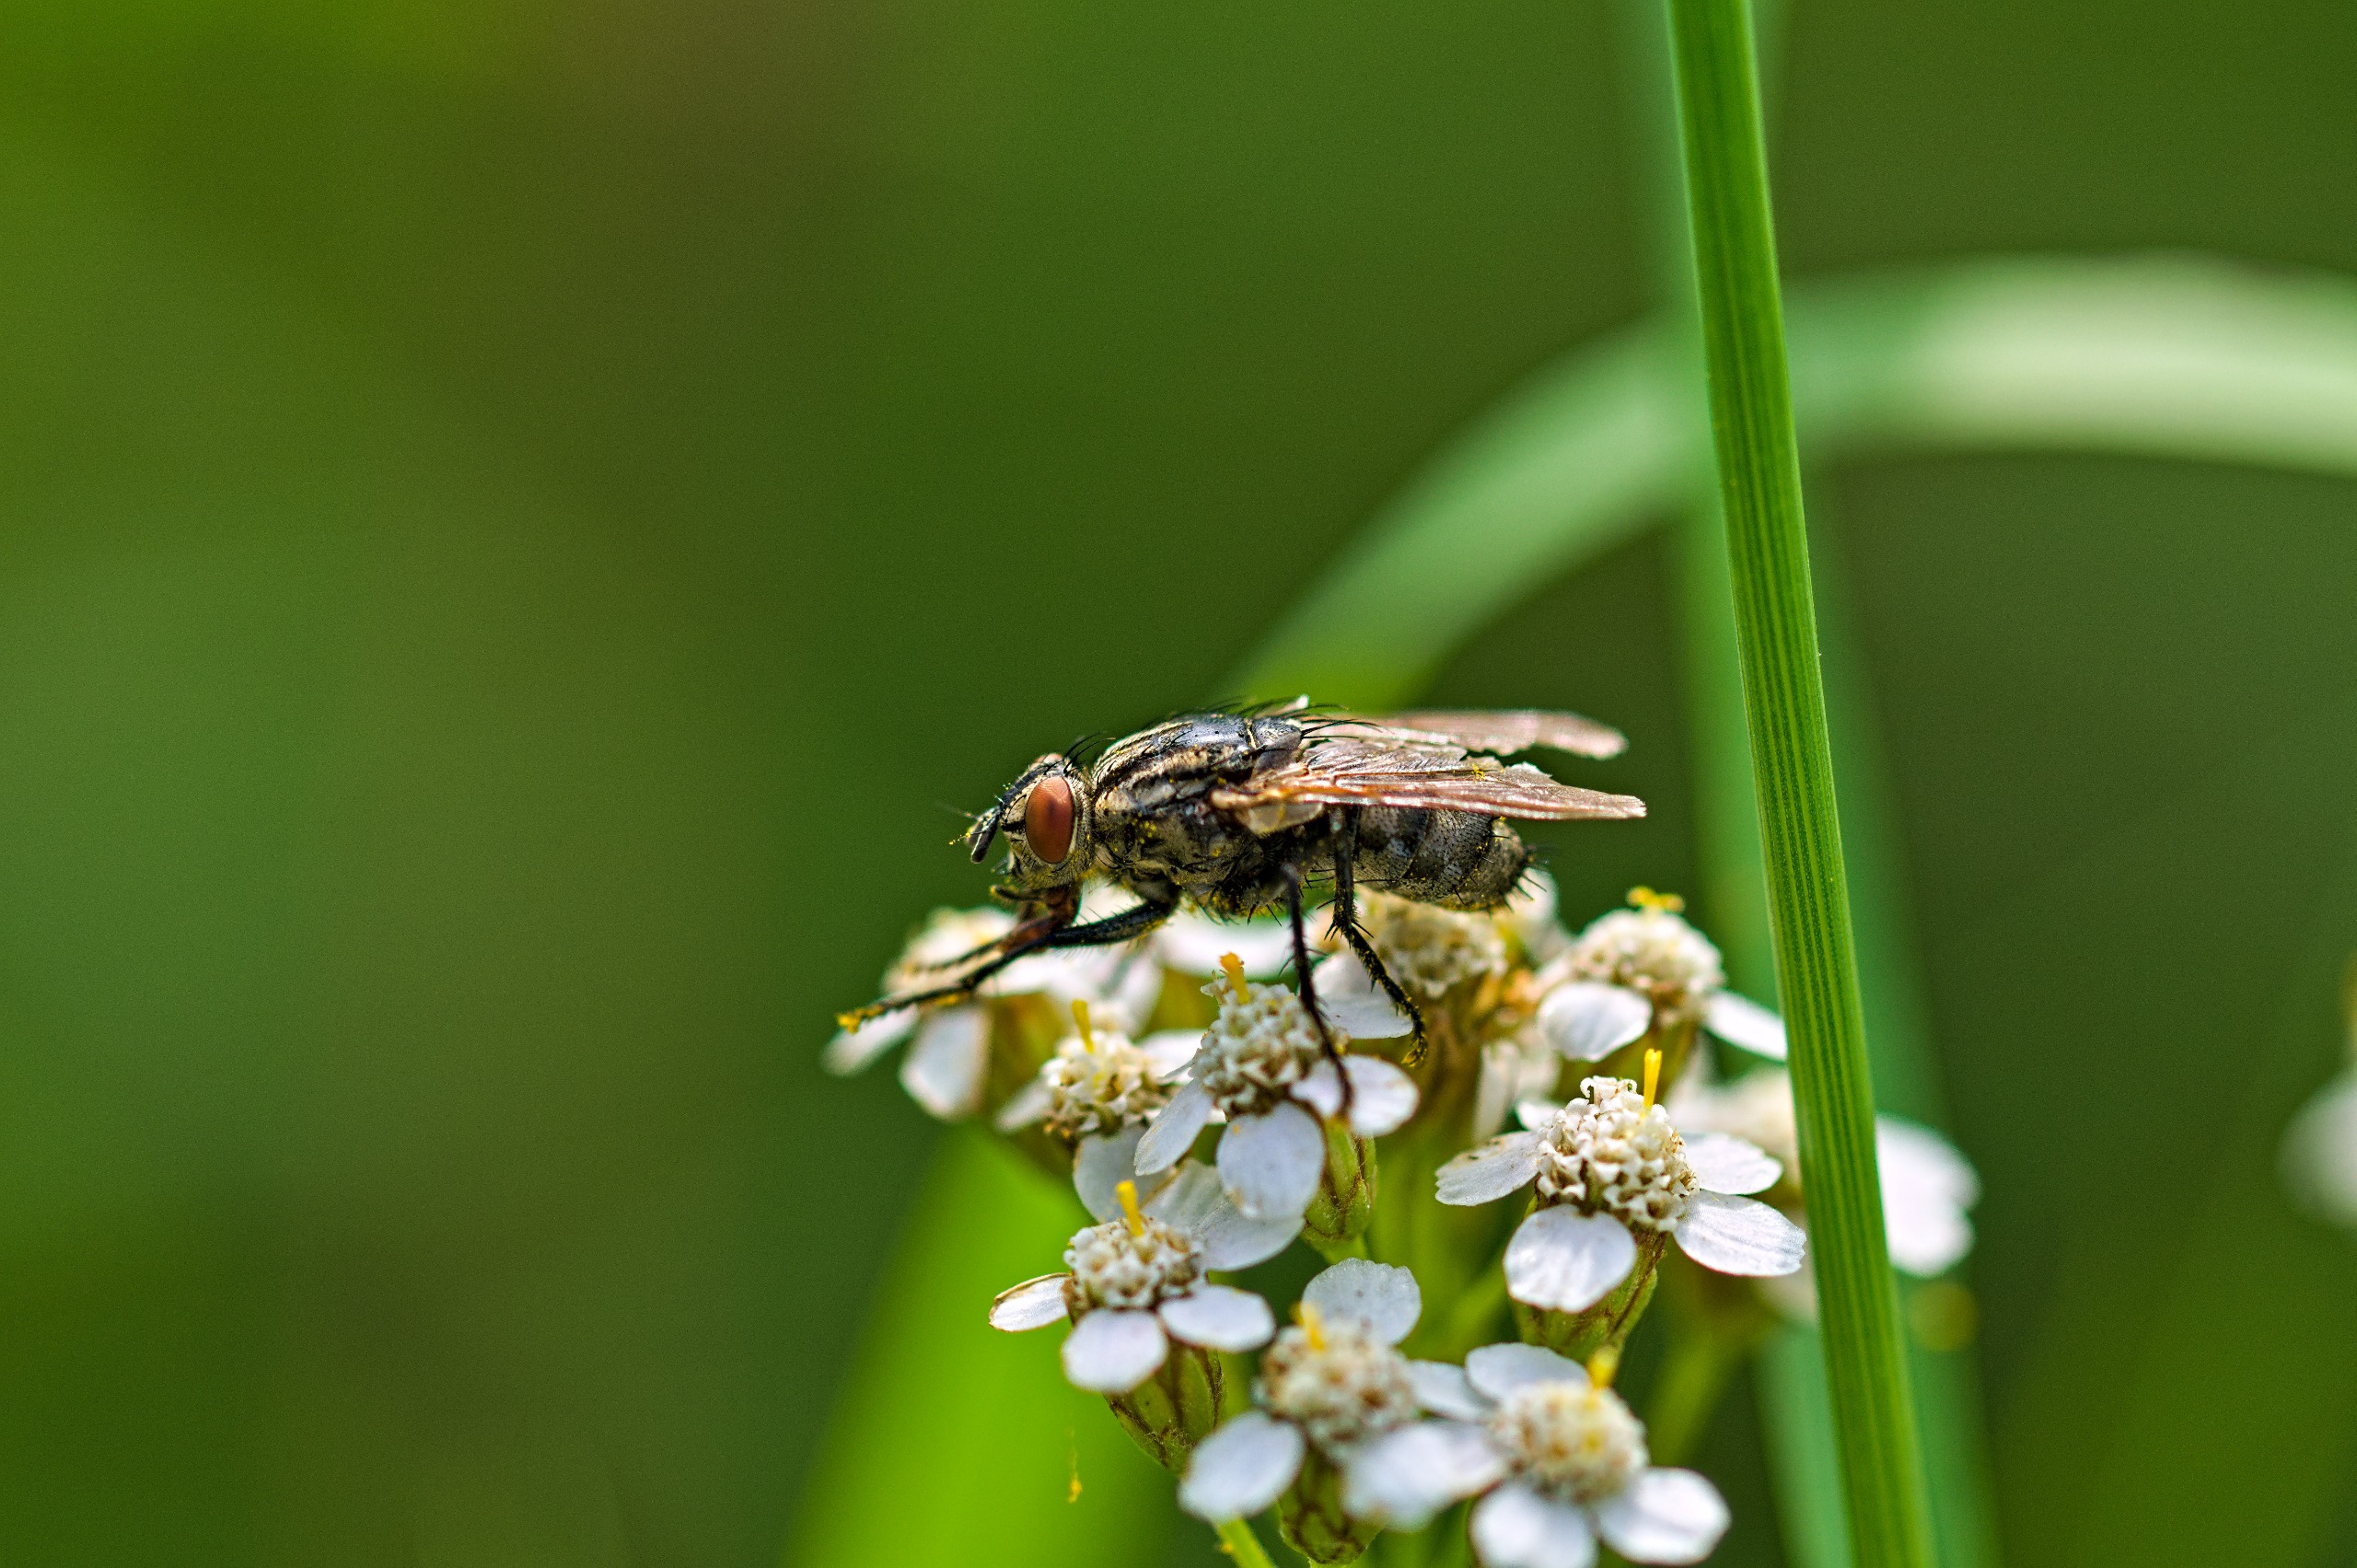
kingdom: Animalia
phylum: Arthropoda
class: Insecta
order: Diptera
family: Sarcophagidae
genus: Sarcophaga
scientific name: Sarcophaga
